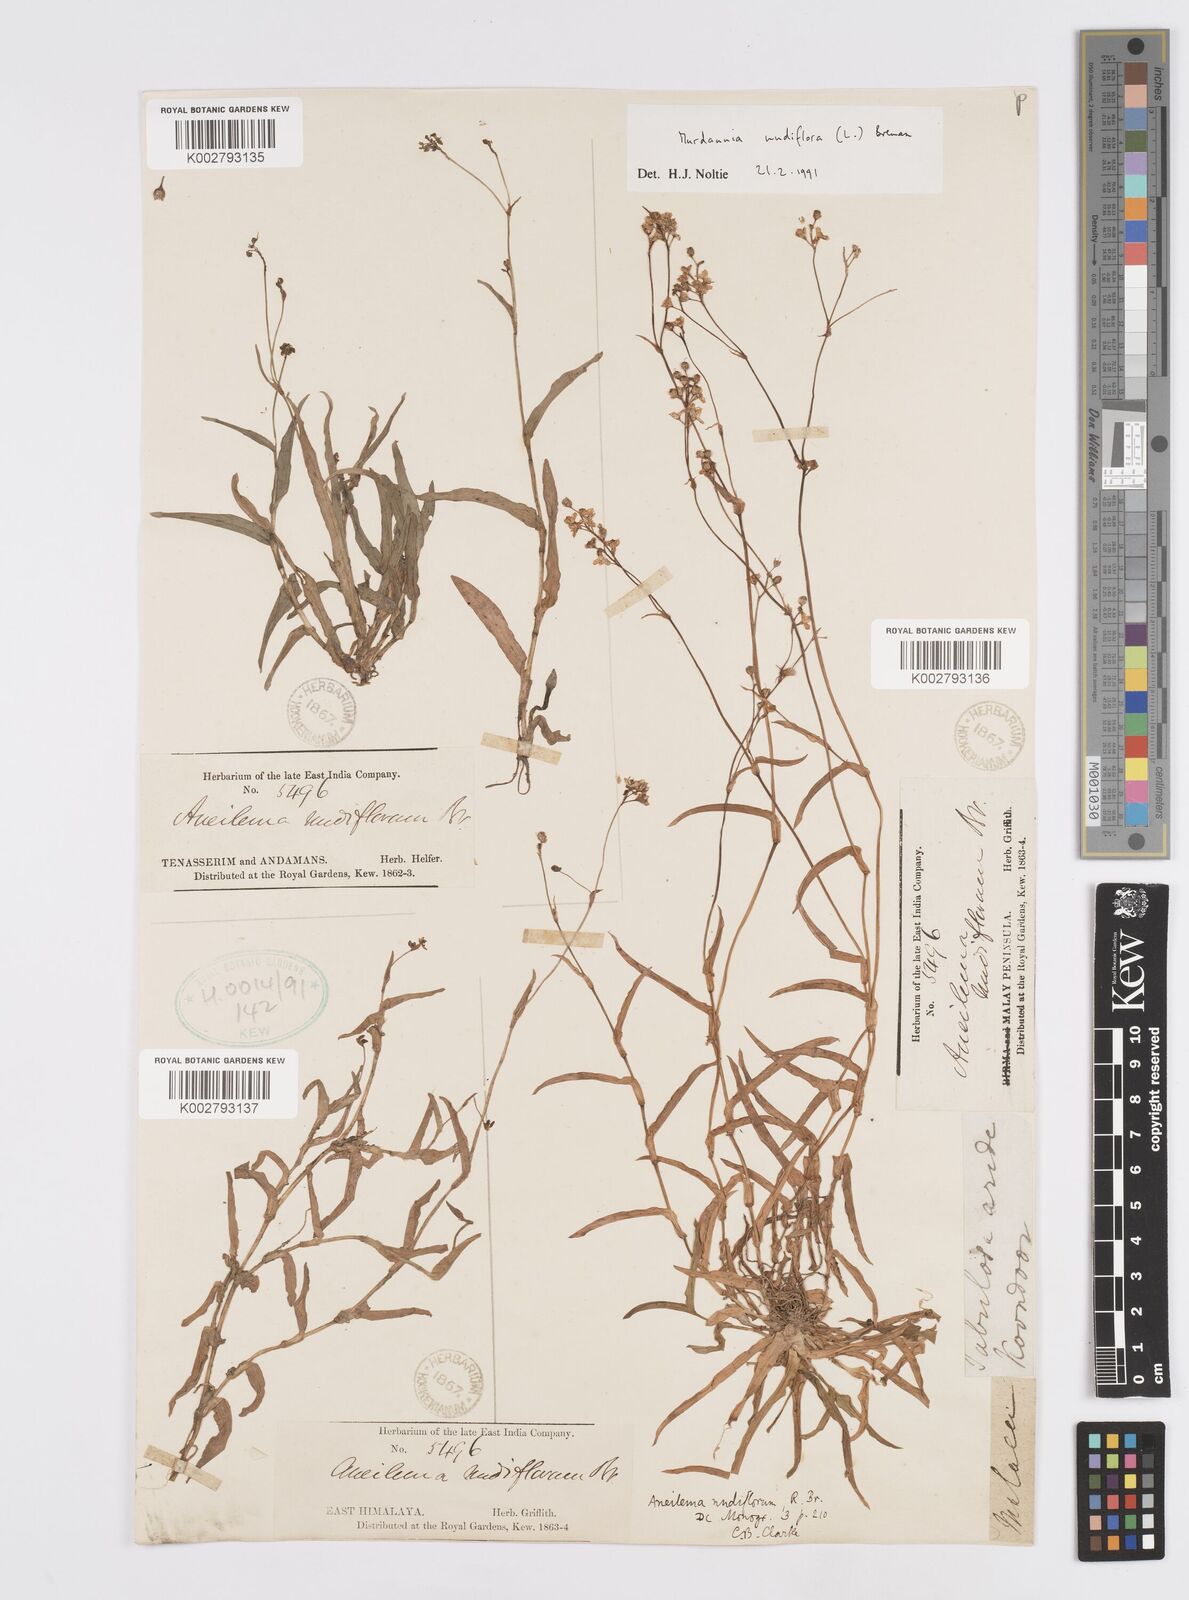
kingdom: Plantae
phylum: Tracheophyta
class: Liliopsida
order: Commelinales
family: Commelinaceae
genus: Murdannia
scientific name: Murdannia nudiflora
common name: Nakedstem dewflower
